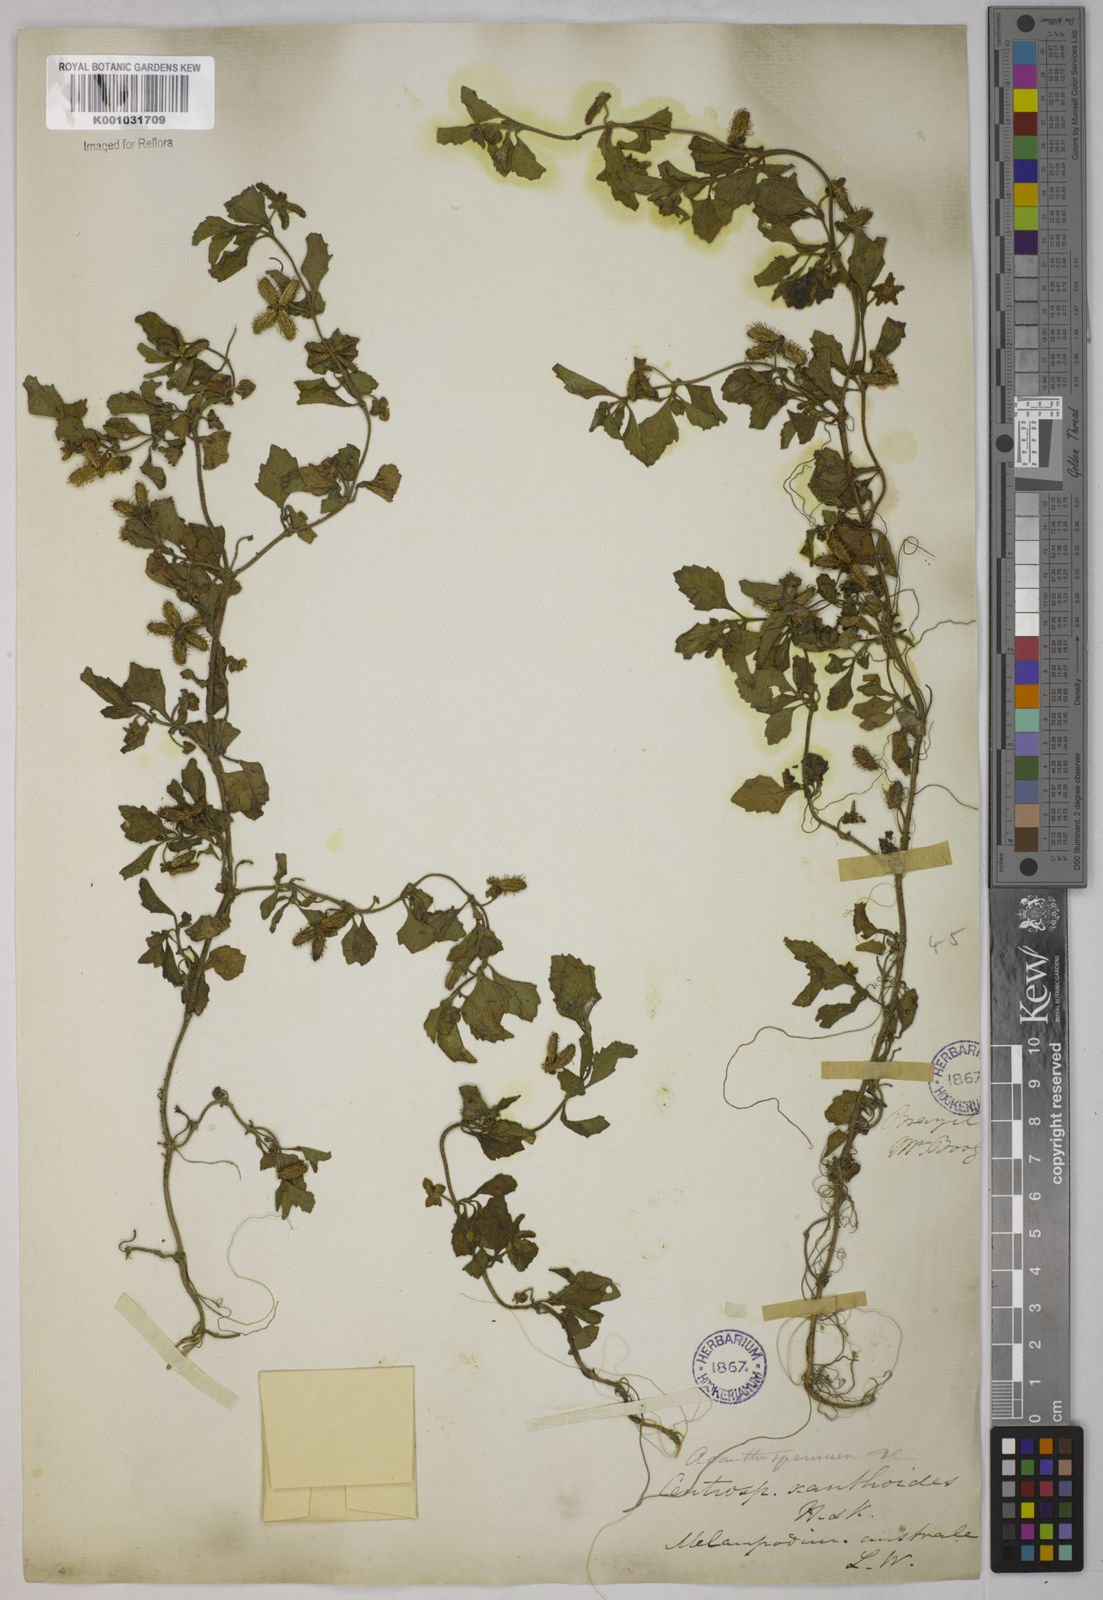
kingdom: Plantae
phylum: Tracheophyta
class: Magnoliopsida
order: Asterales
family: Asteraceae
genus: Acanthospermum
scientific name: Acanthospermum australe
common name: Paraguayan starbur
